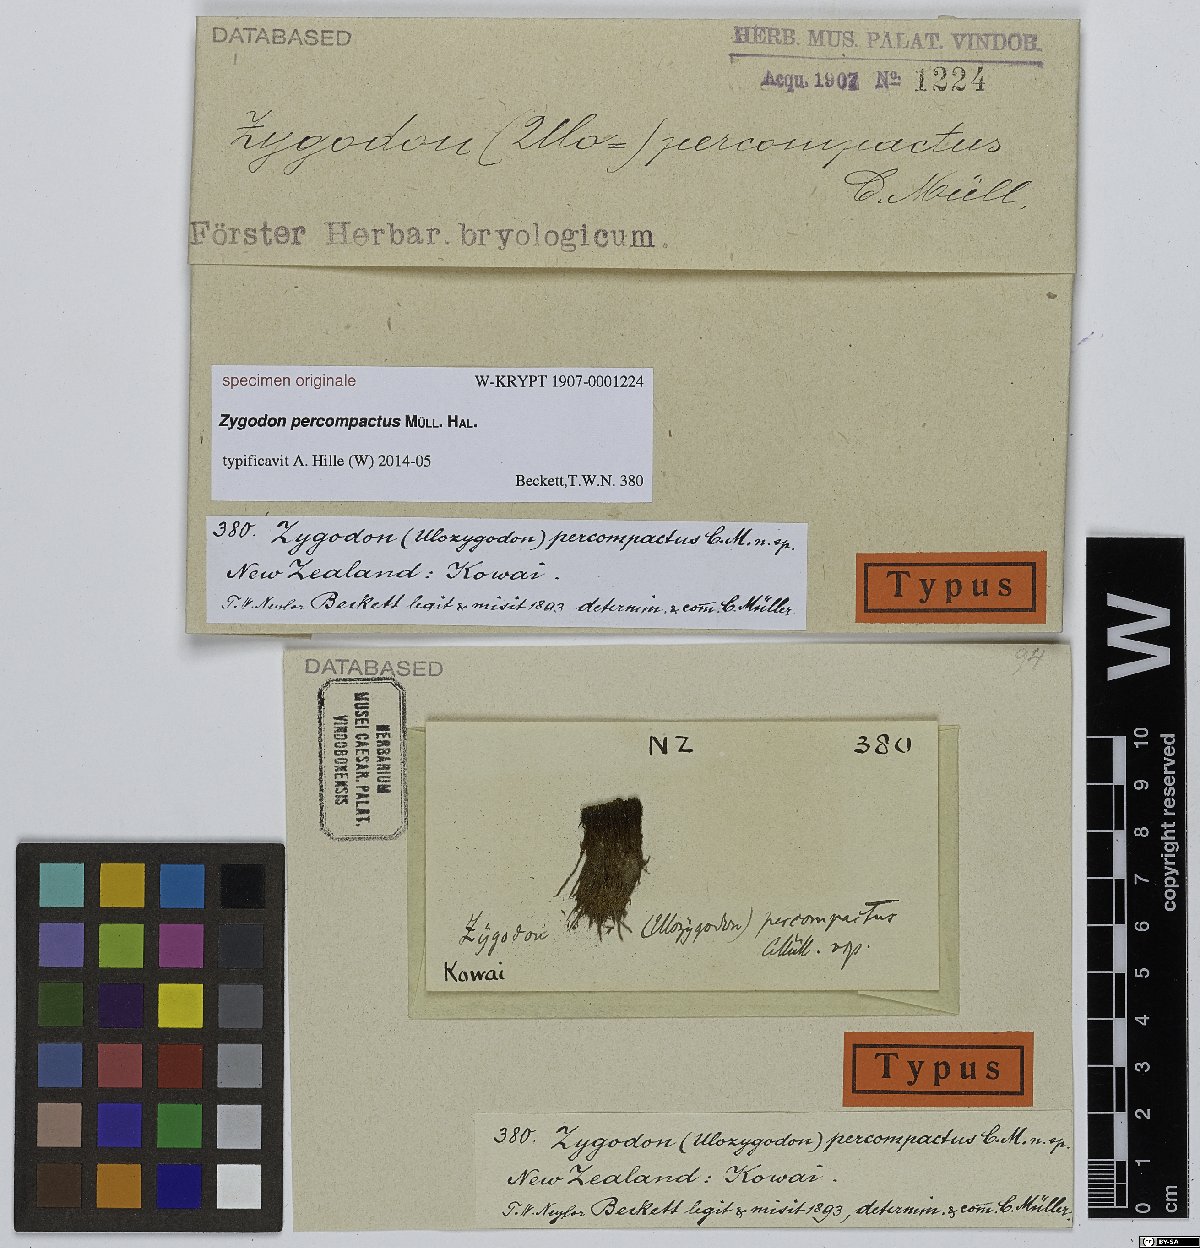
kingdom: Plantae
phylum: Bryophyta
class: Bryopsida
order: Orthotrichales
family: Orthotrichaceae
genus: Zygodon
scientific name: Zygodon
